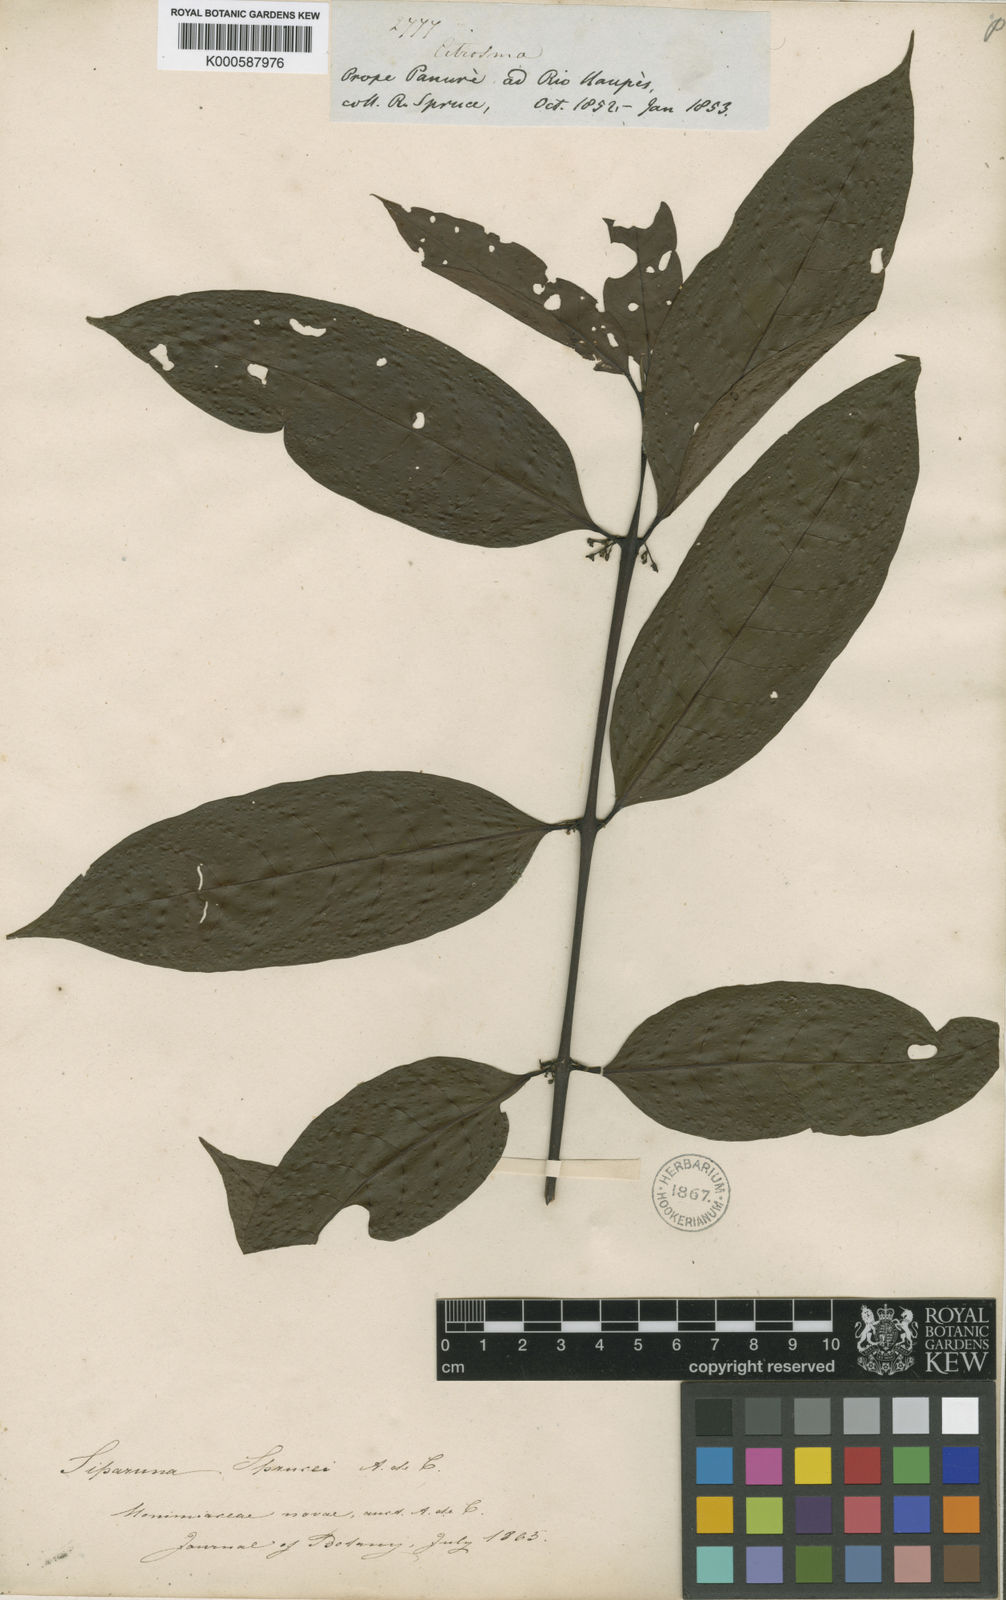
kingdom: Plantae
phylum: Tracheophyta
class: Magnoliopsida
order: Laurales
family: Siparunaceae
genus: Siparuna
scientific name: Siparuna poeppigii
